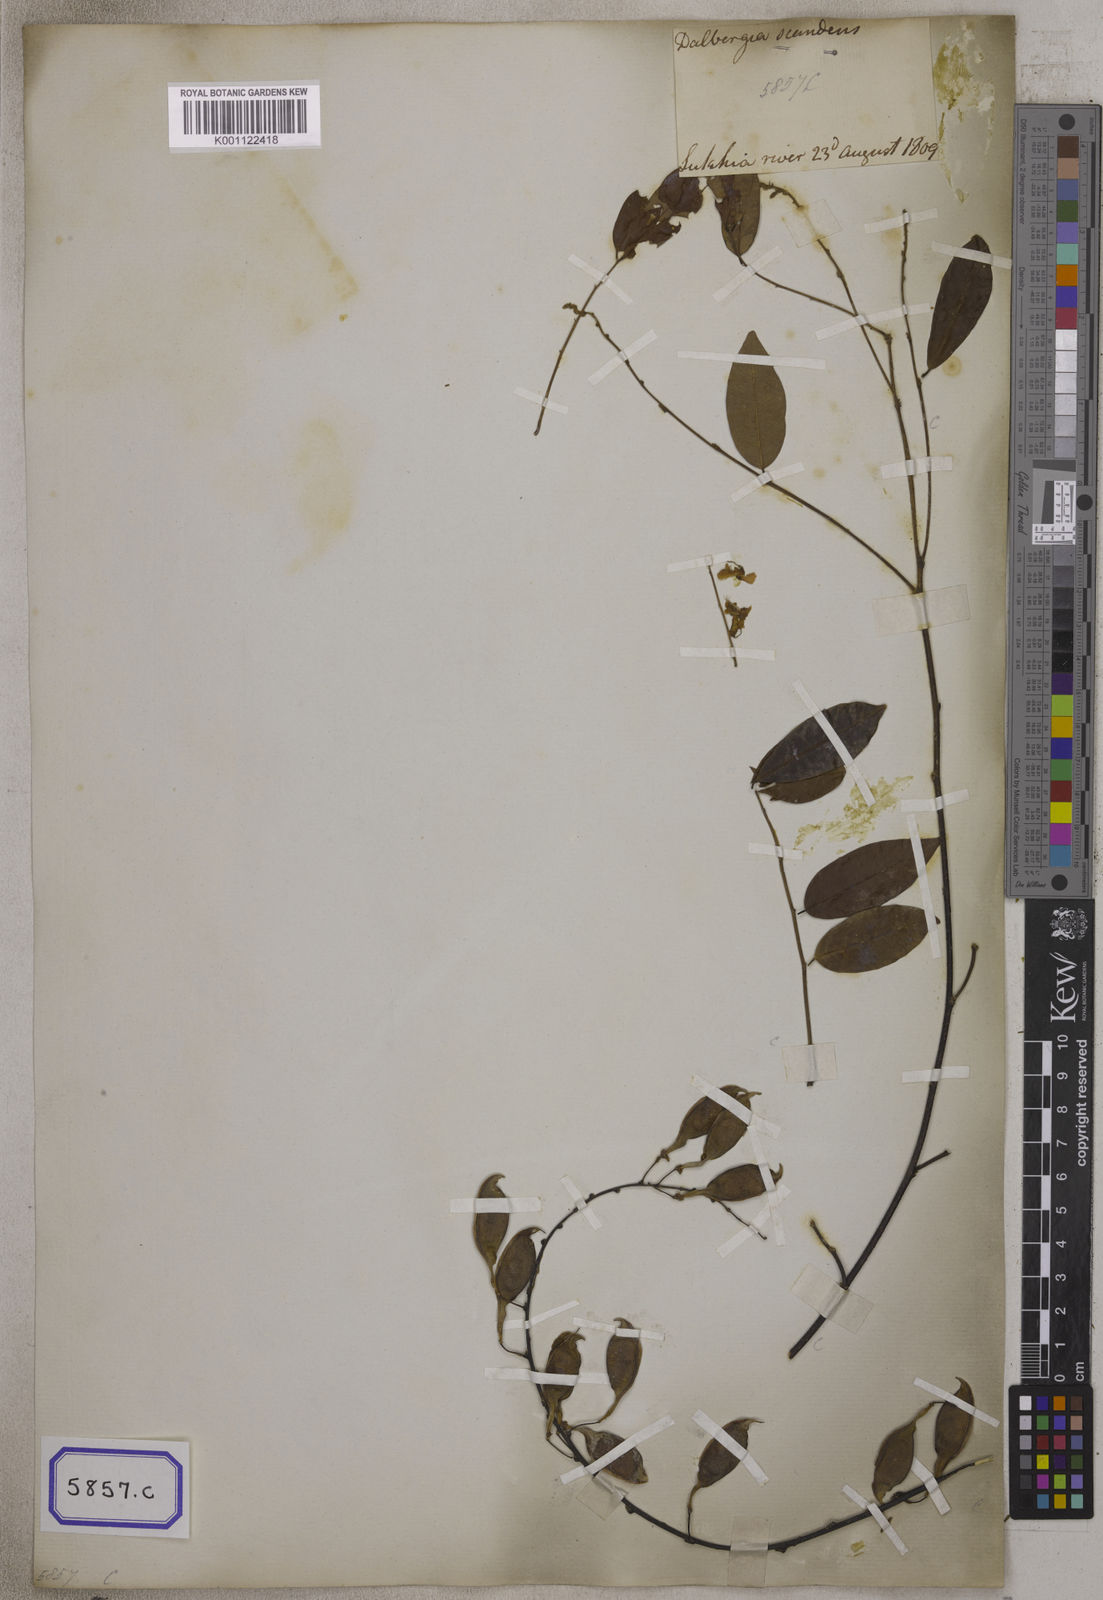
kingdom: Plantae
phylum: Tracheophyta
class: Magnoliopsida
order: Fabales
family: Fabaceae
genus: Brachypterum
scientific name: Brachypterum scandens
